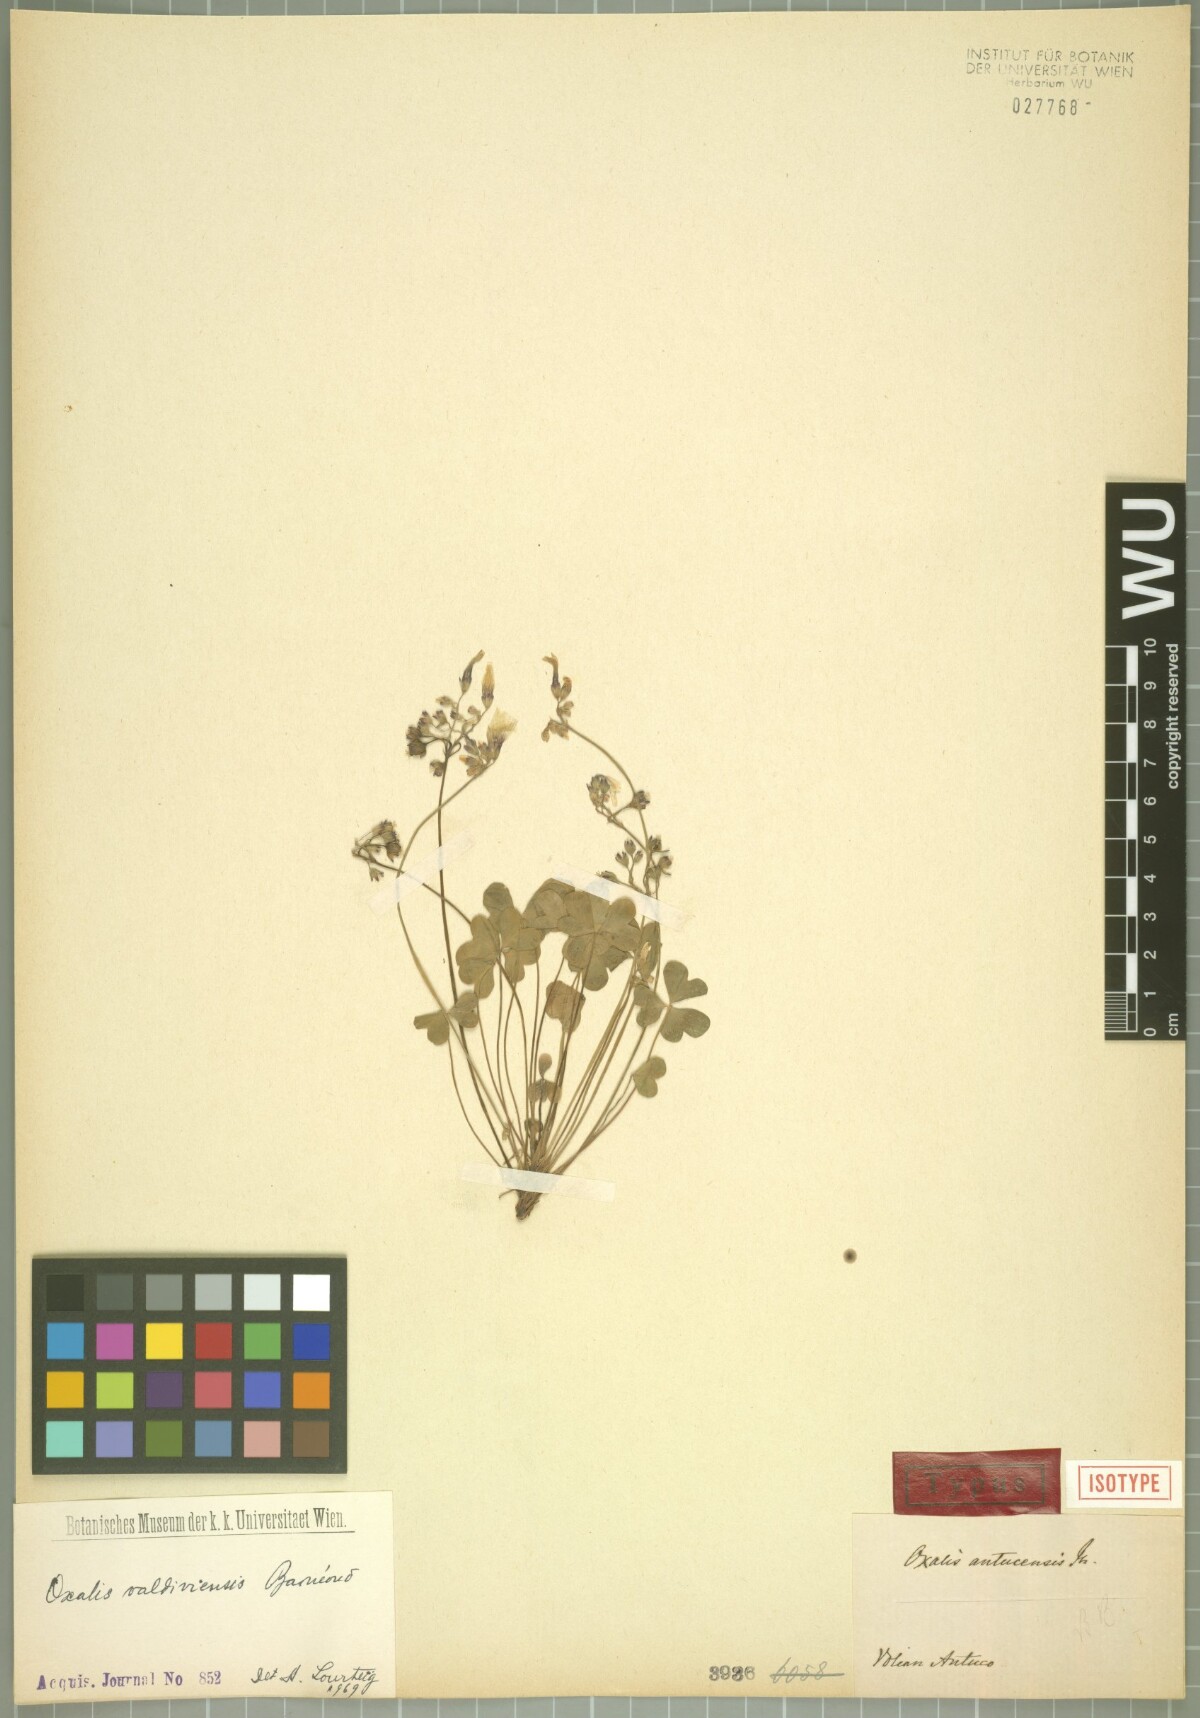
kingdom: Plantae
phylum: Tracheophyta
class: Magnoliopsida
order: Oxalidales
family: Oxalidaceae
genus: Oxalis
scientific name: Oxalis valdiviensis
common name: Chilean yellow-sorrel
